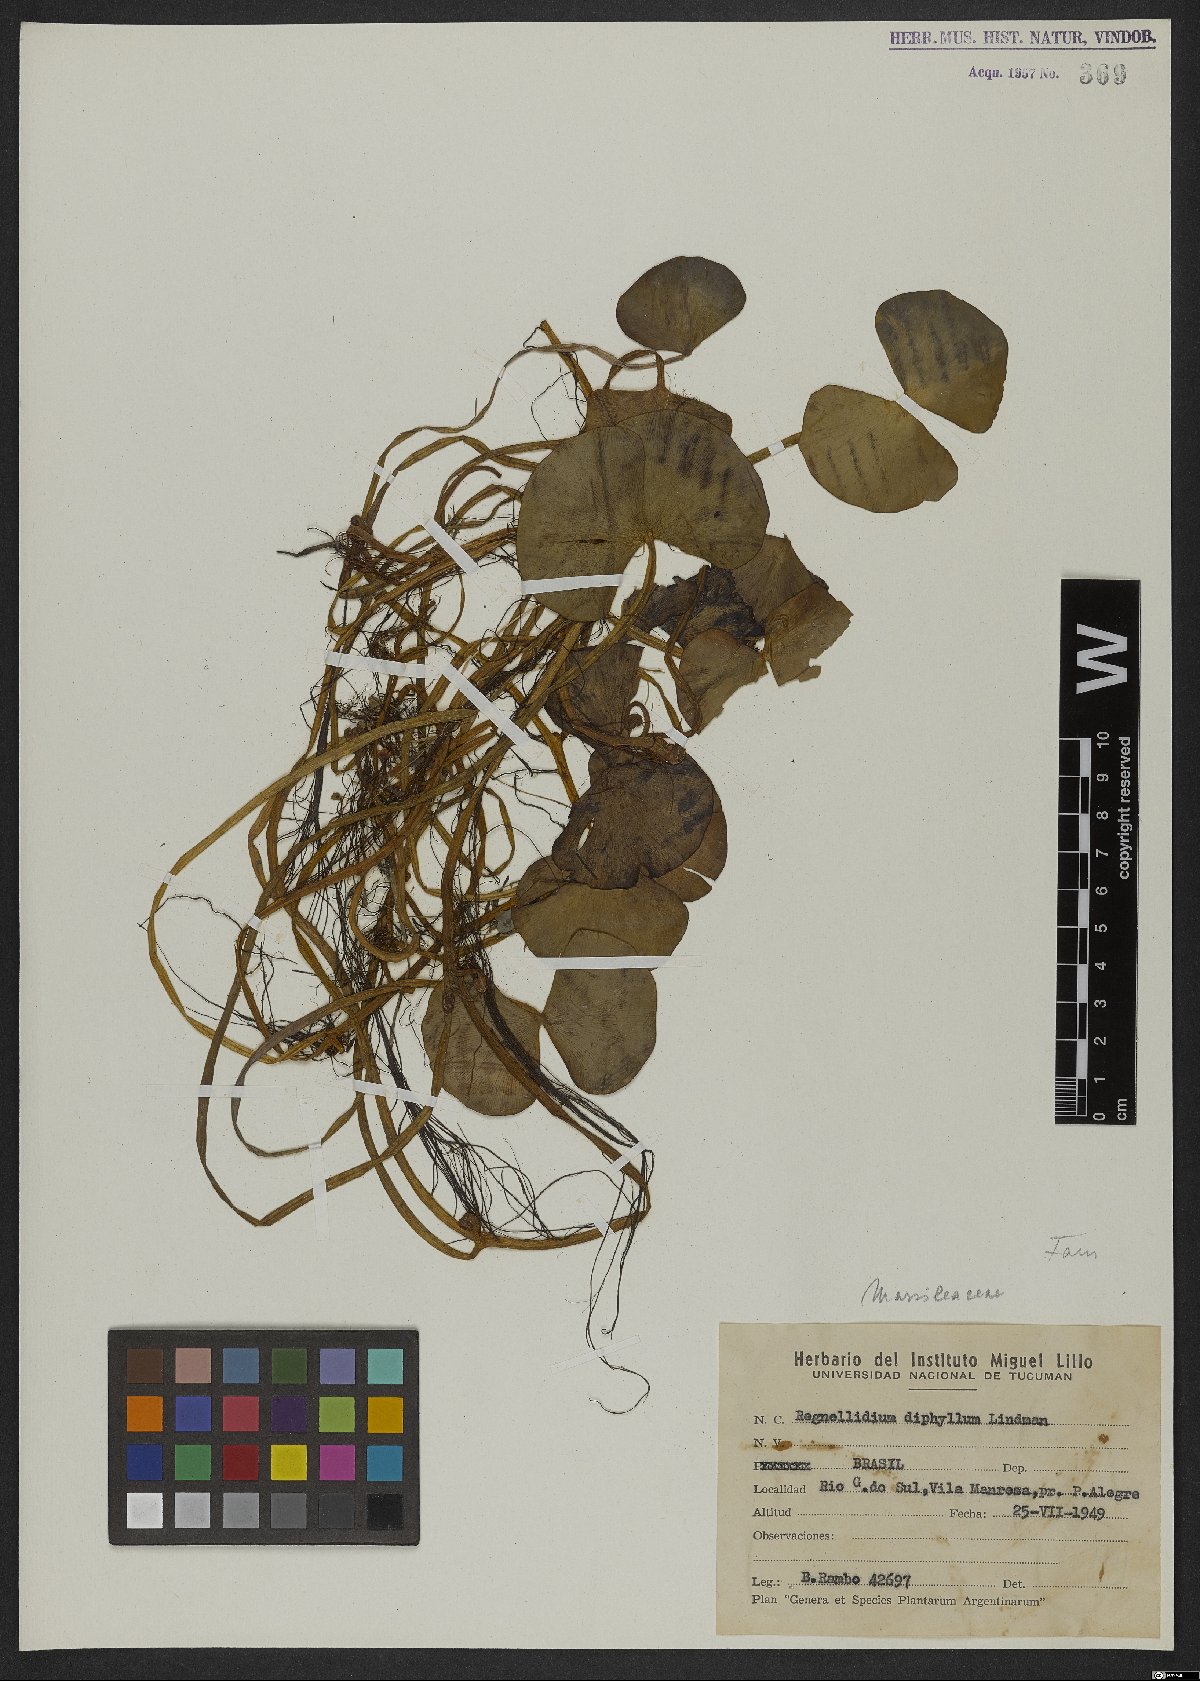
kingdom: Plantae
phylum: Tracheophyta
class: Polypodiopsida
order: Salviniales
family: Marsileaceae
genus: Regnellidium
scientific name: Regnellidium diphyllum
